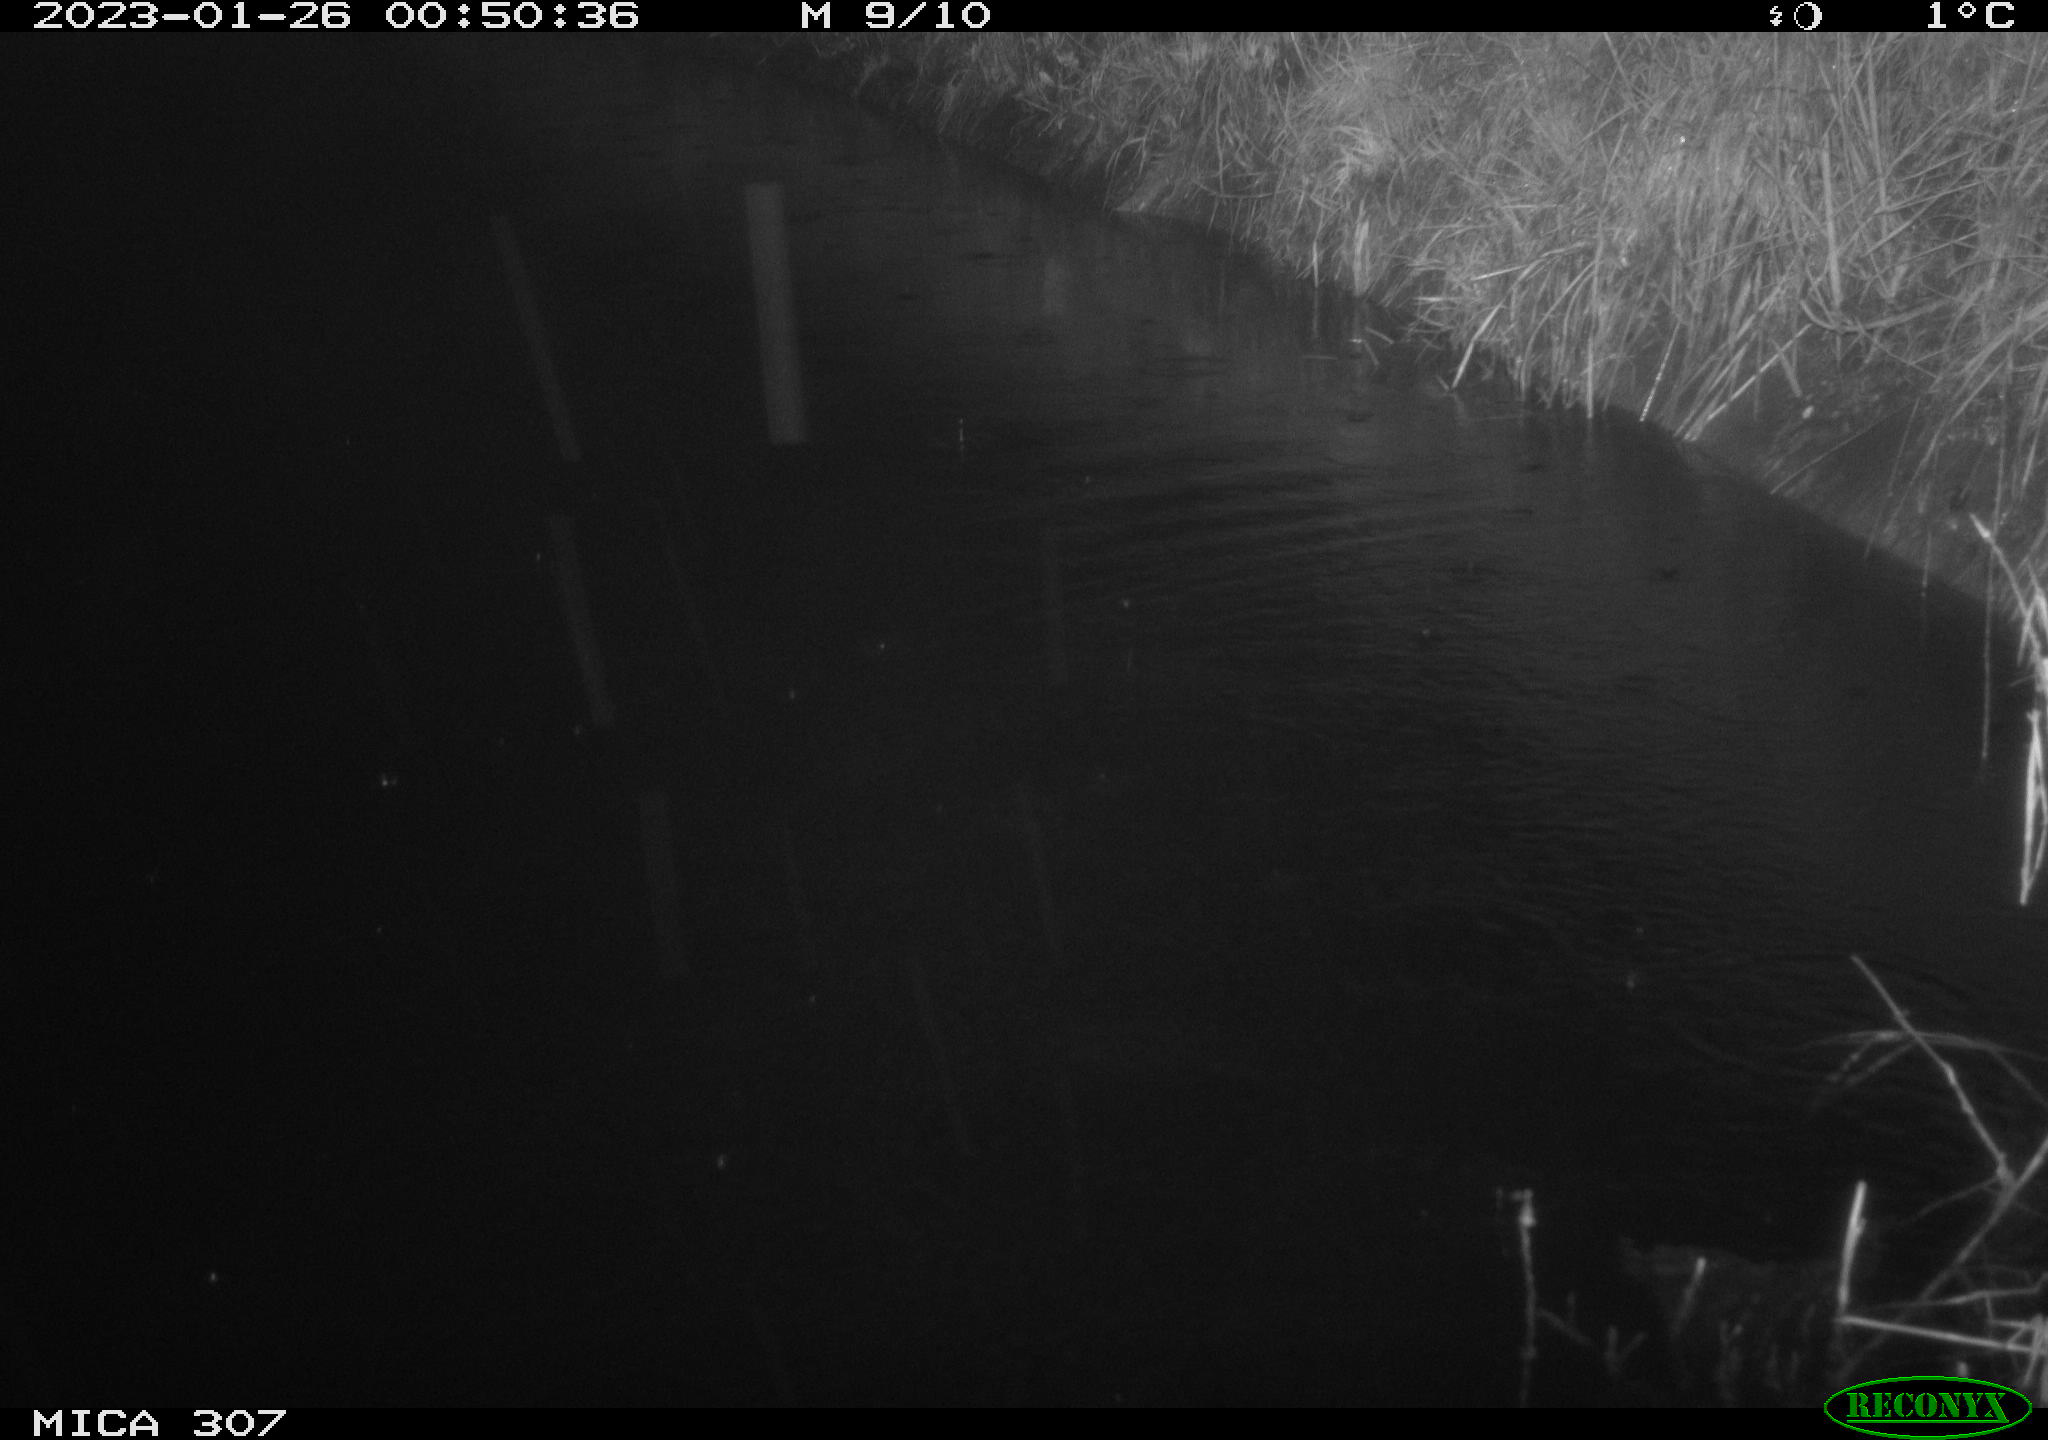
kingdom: Animalia
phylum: Chordata
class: Mammalia
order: Rodentia
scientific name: Rodentia
